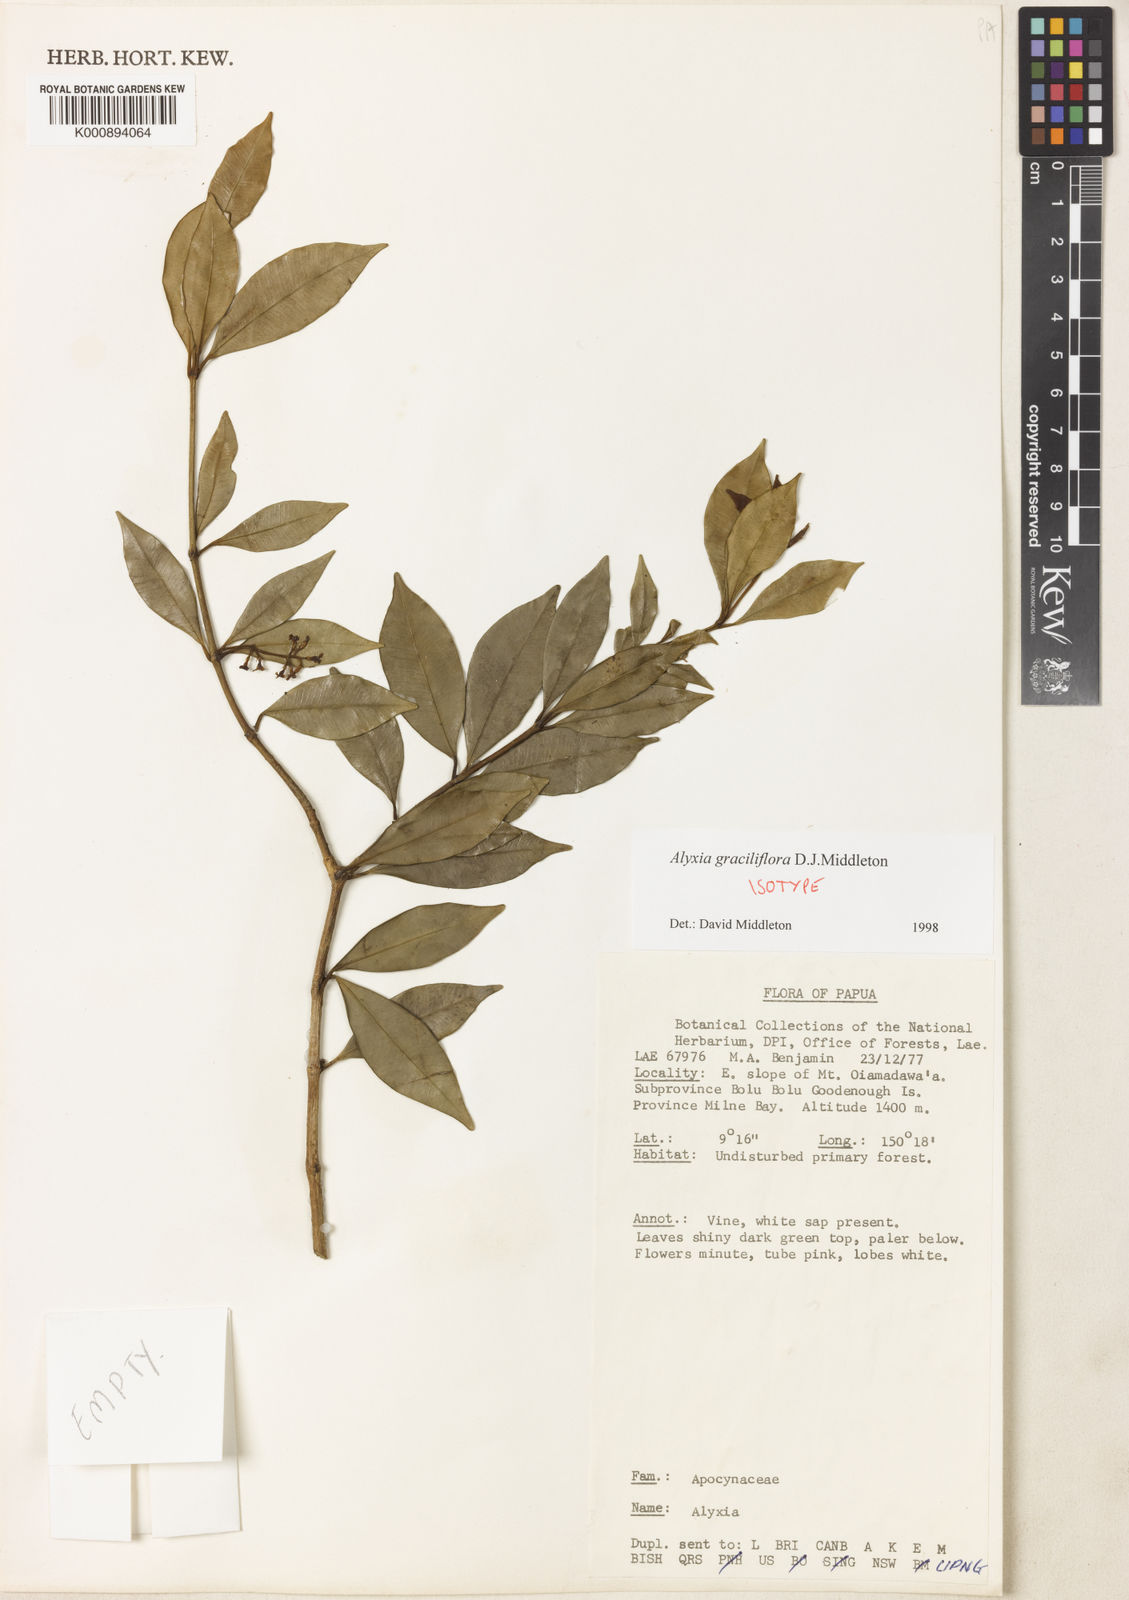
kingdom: Plantae
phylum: Tracheophyta
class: Magnoliopsida
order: Gentianales
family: Apocynaceae
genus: Alyxia
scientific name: Alyxia graciliflora
